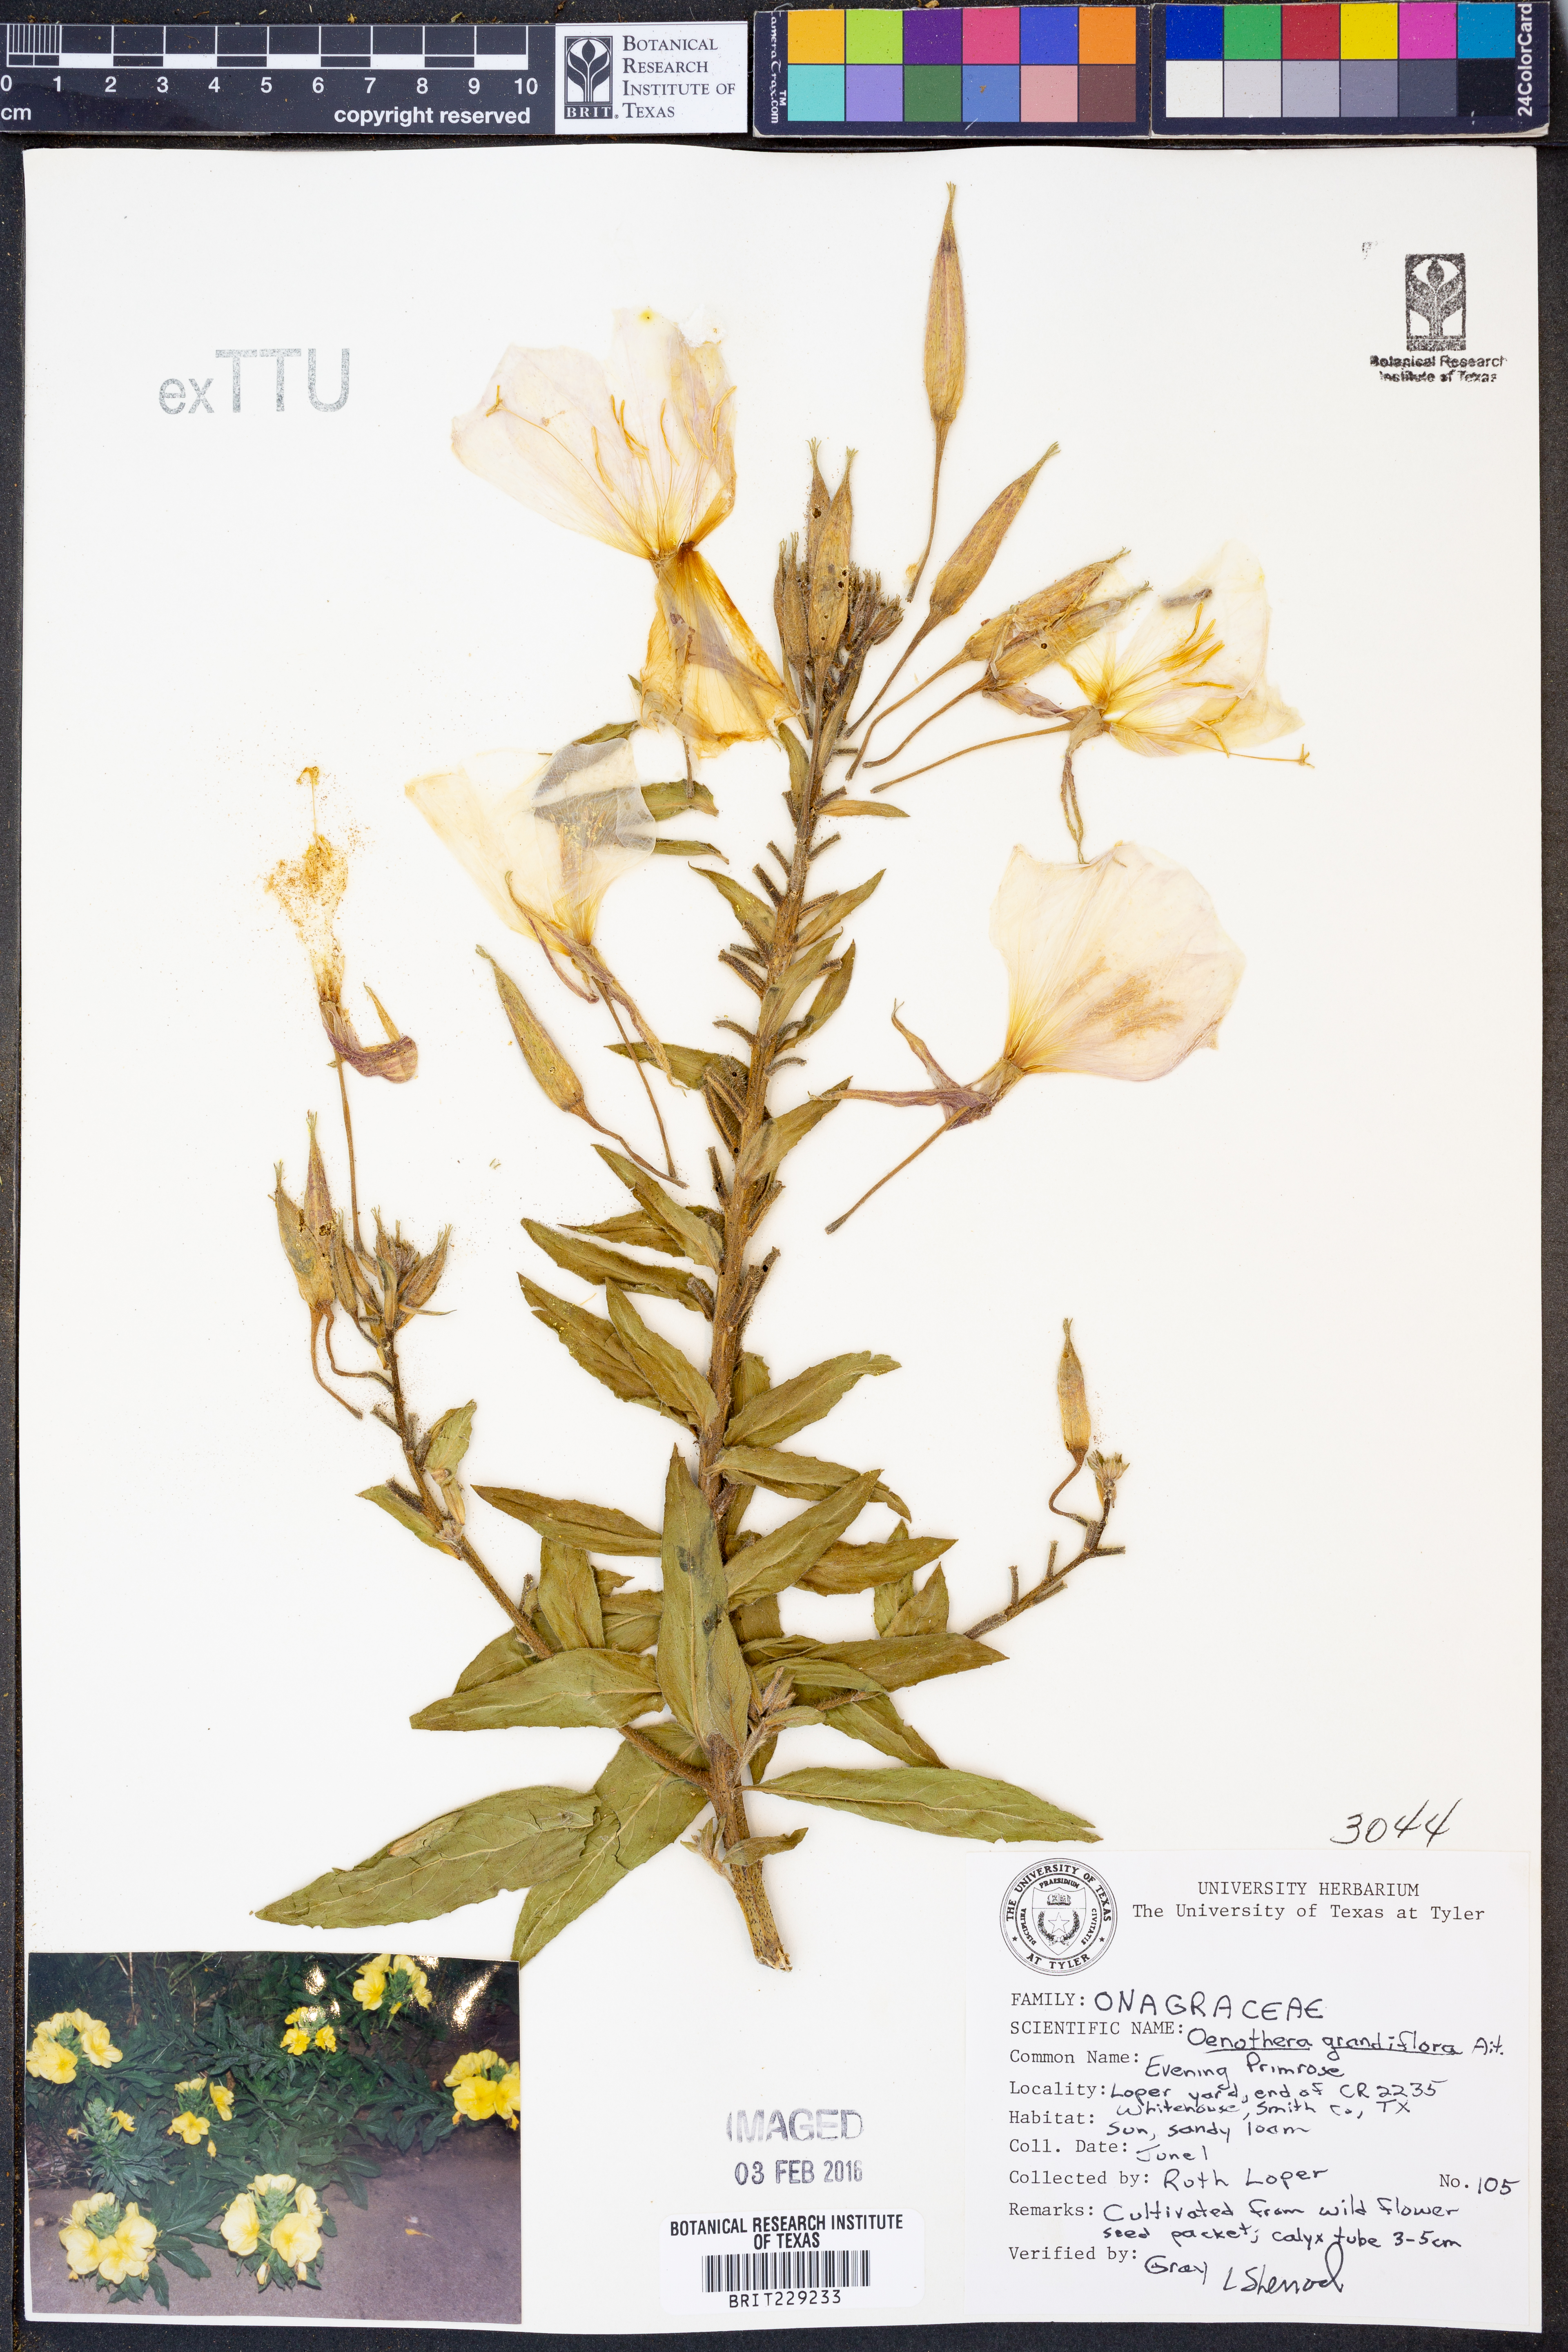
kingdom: Plantae
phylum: Tracheophyta
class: Magnoliopsida
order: Myrtales
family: Onagraceae
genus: Oenothera
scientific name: Oenothera grandiflora
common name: Large-flowered evening-primrose
